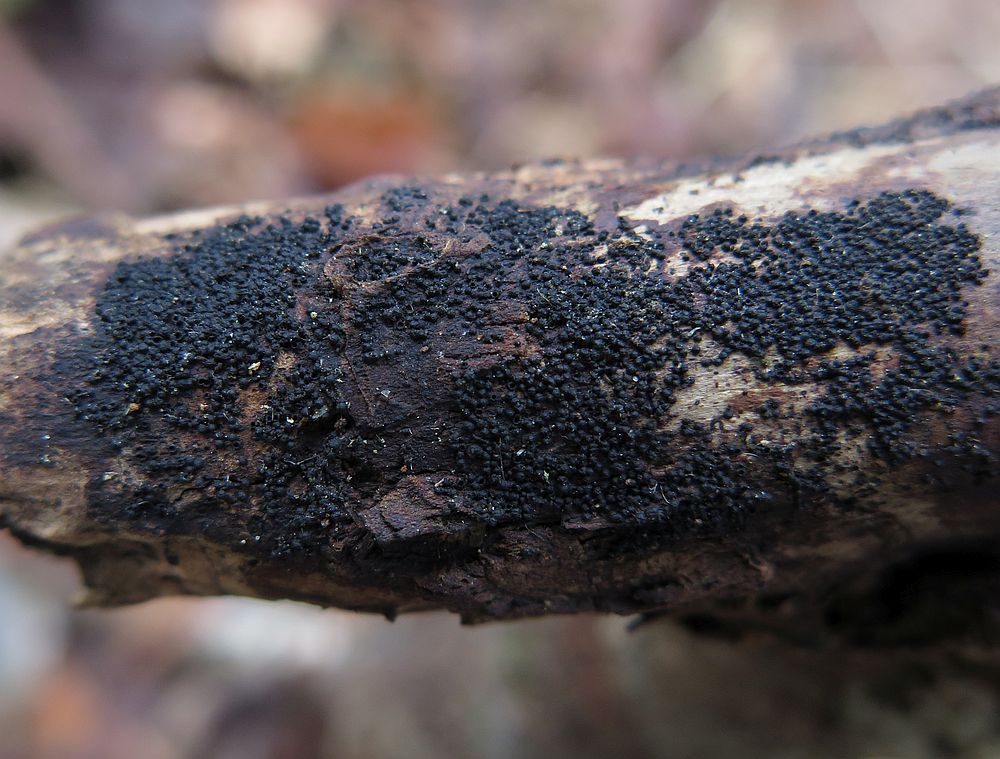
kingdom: Fungi
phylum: Ascomycota
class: Dothideomycetes
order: Pleosporales
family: Melanommataceae
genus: Melanomma
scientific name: Melanomma pulvis-pyrius
